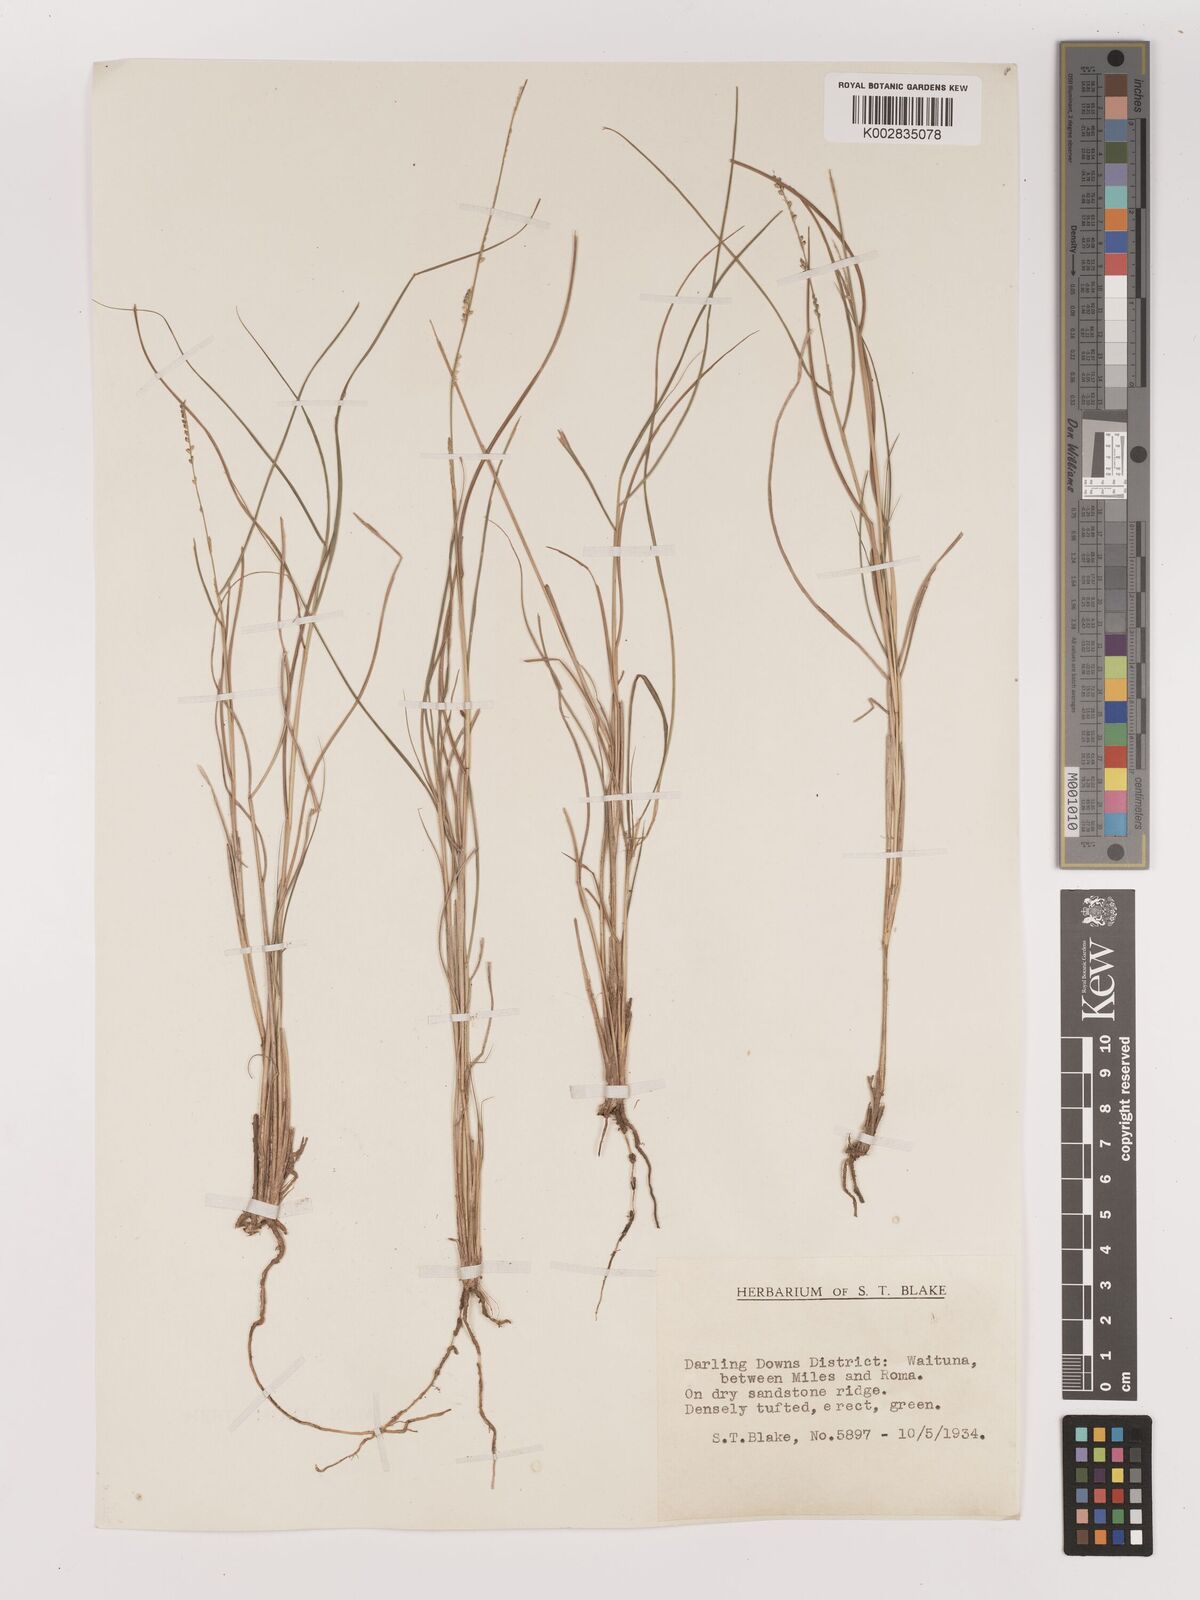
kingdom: Plantae
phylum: Tracheophyta
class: Liliopsida
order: Poales
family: Poaceae
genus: Setaria
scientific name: Setaria
